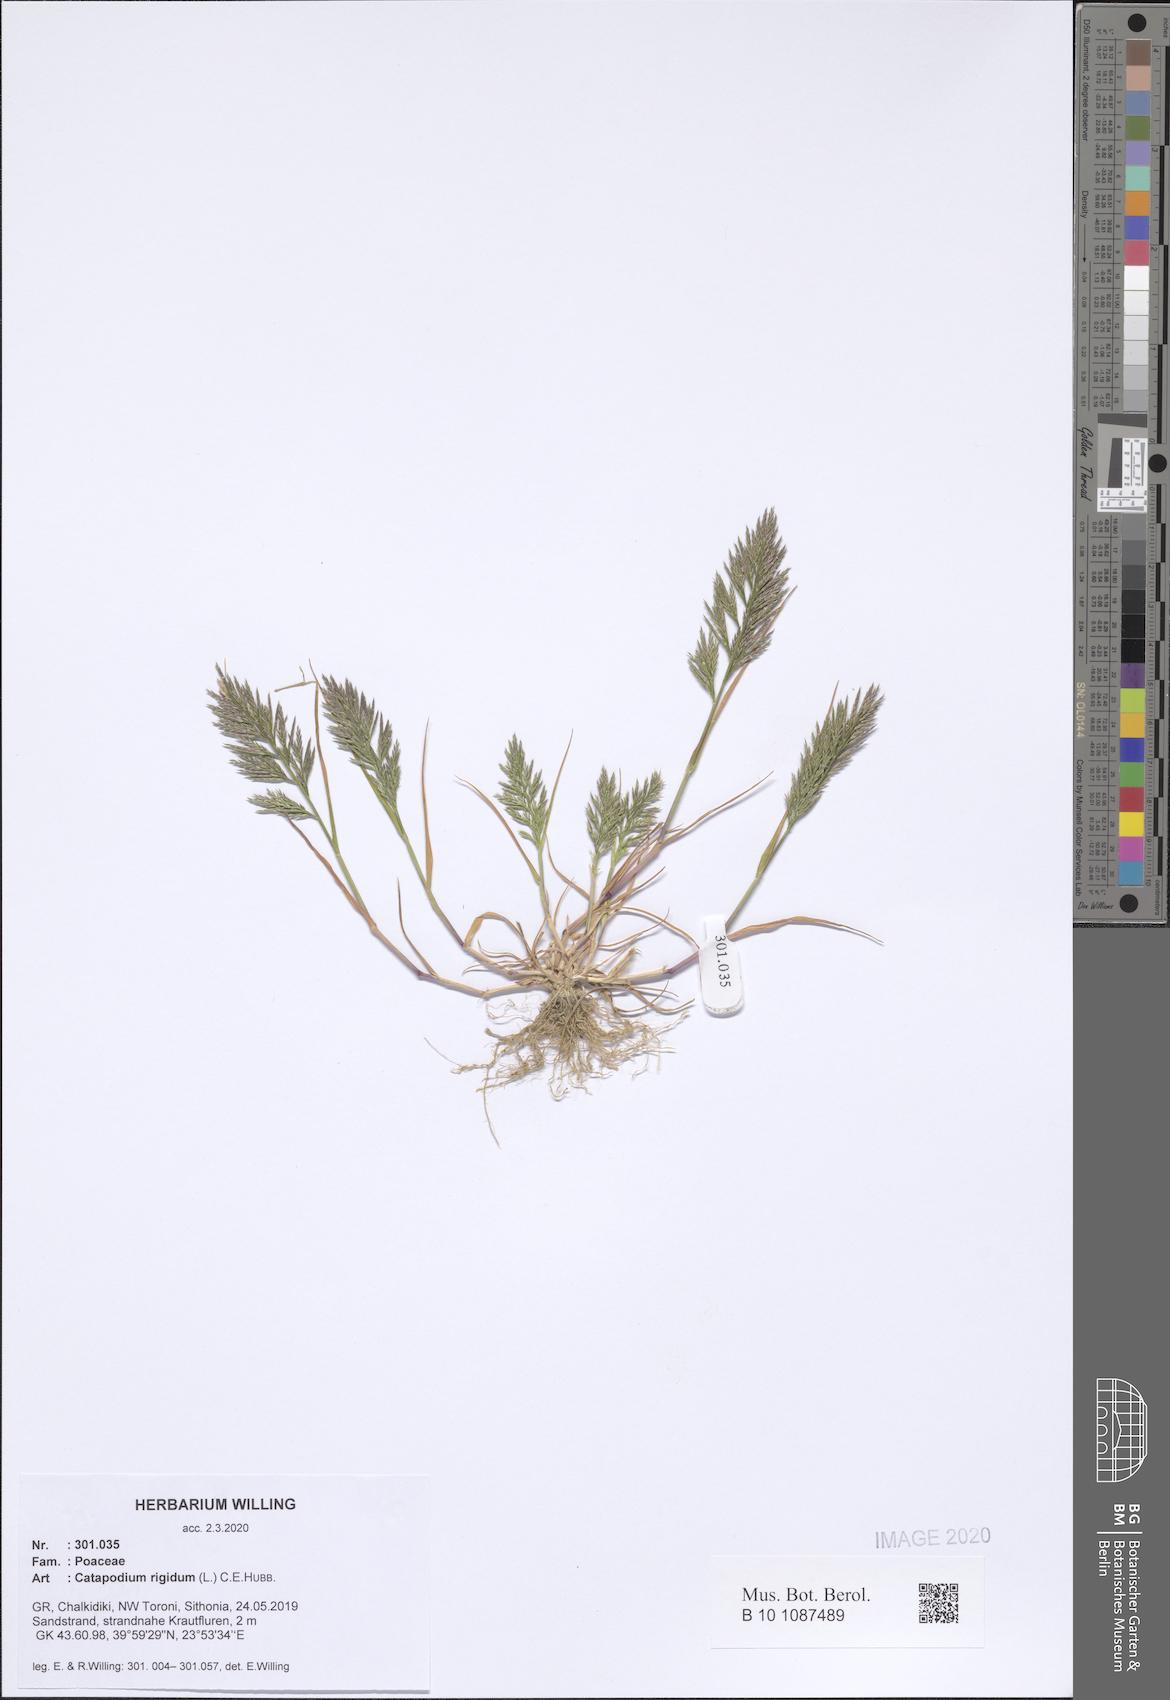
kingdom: Plantae
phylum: Tracheophyta
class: Liliopsida
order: Poales
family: Poaceae
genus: Catapodium
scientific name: Catapodium rigidum
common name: Fern-grass
